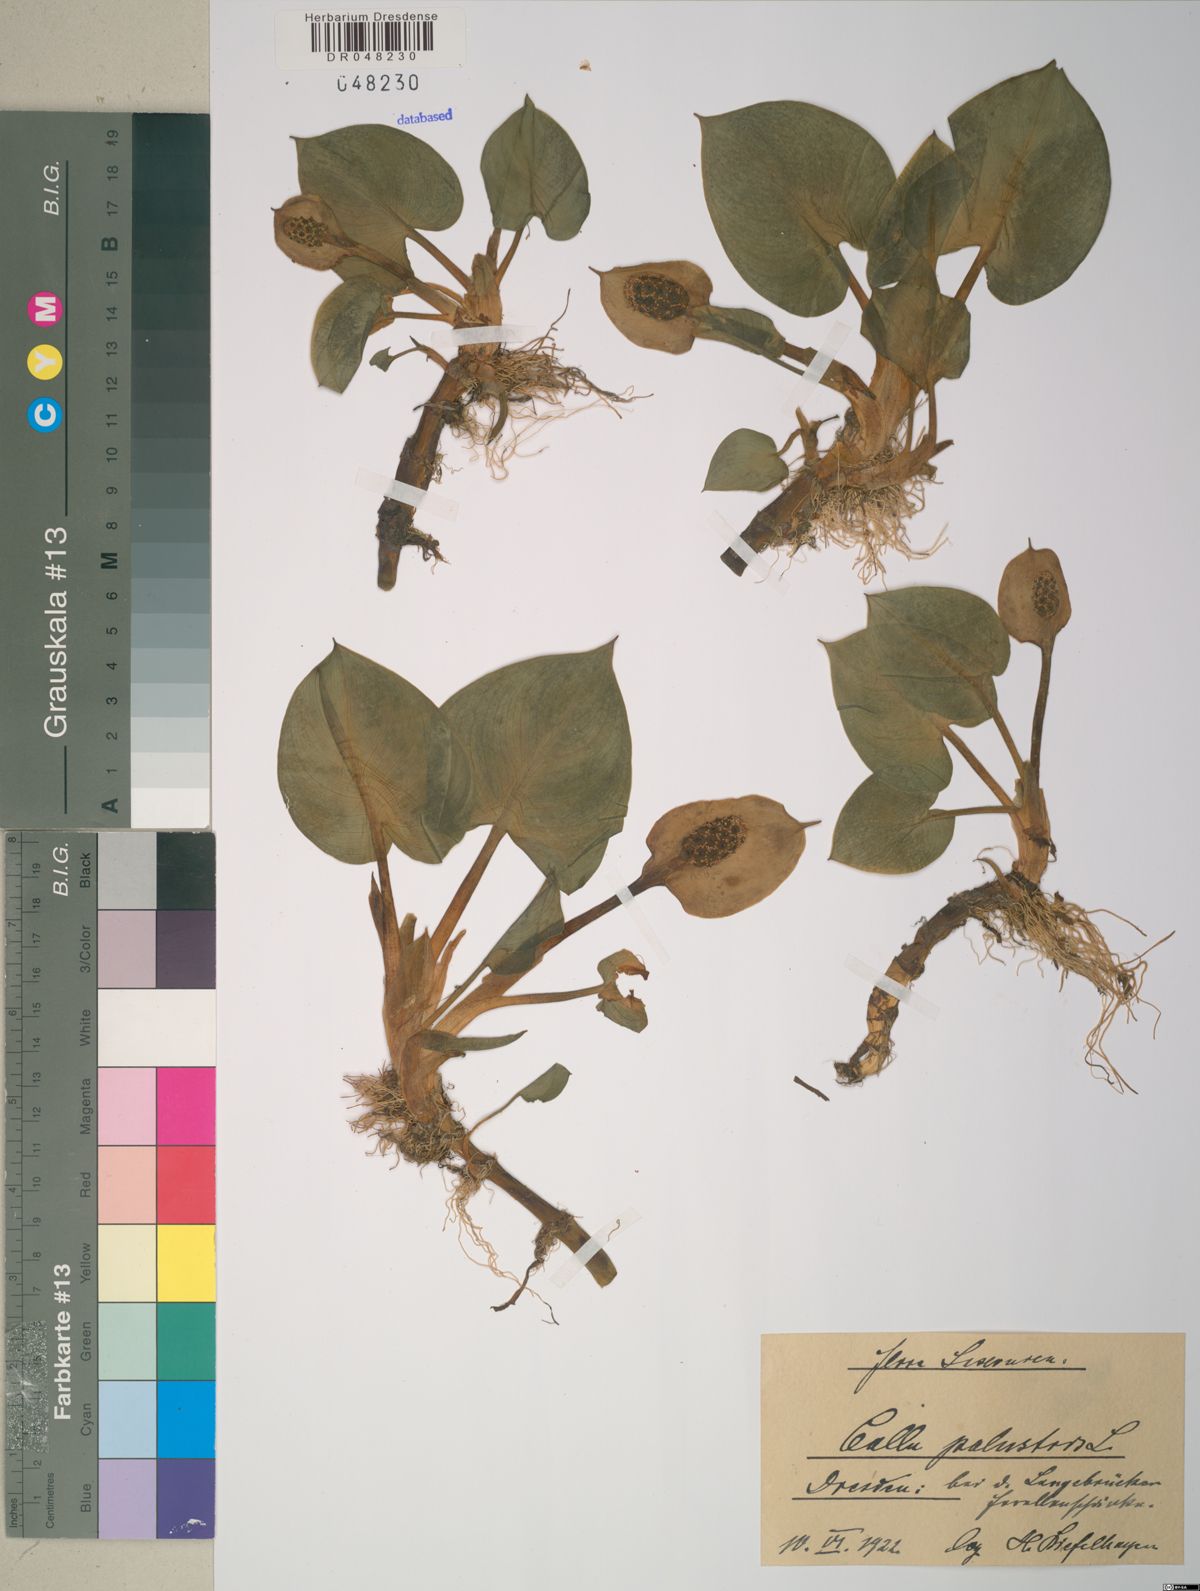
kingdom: Plantae
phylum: Tracheophyta
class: Liliopsida
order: Alismatales
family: Araceae
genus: Calla
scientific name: Calla palustris
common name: Bog arum
